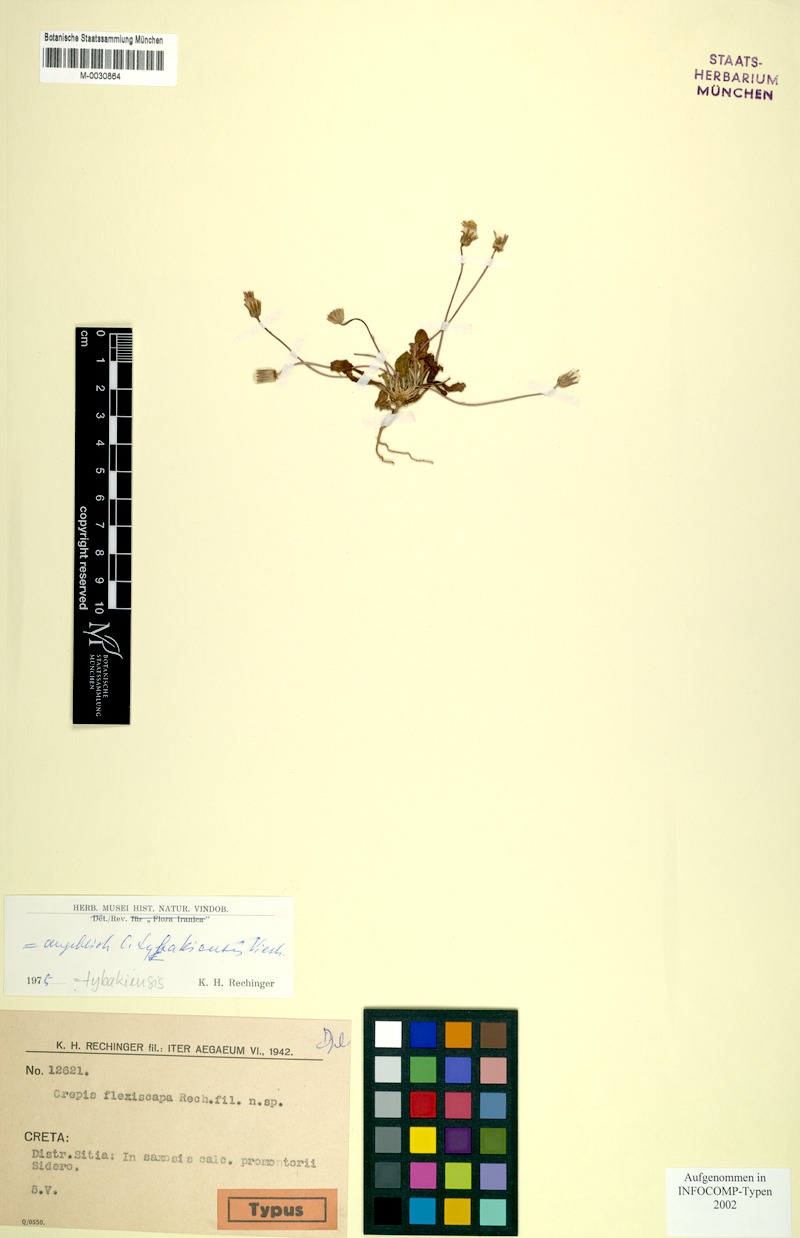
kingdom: Plantae
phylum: Tracheophyta
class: Magnoliopsida
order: Asterales
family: Asteraceae
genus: Crepis
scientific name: Crepis tybakiensis
